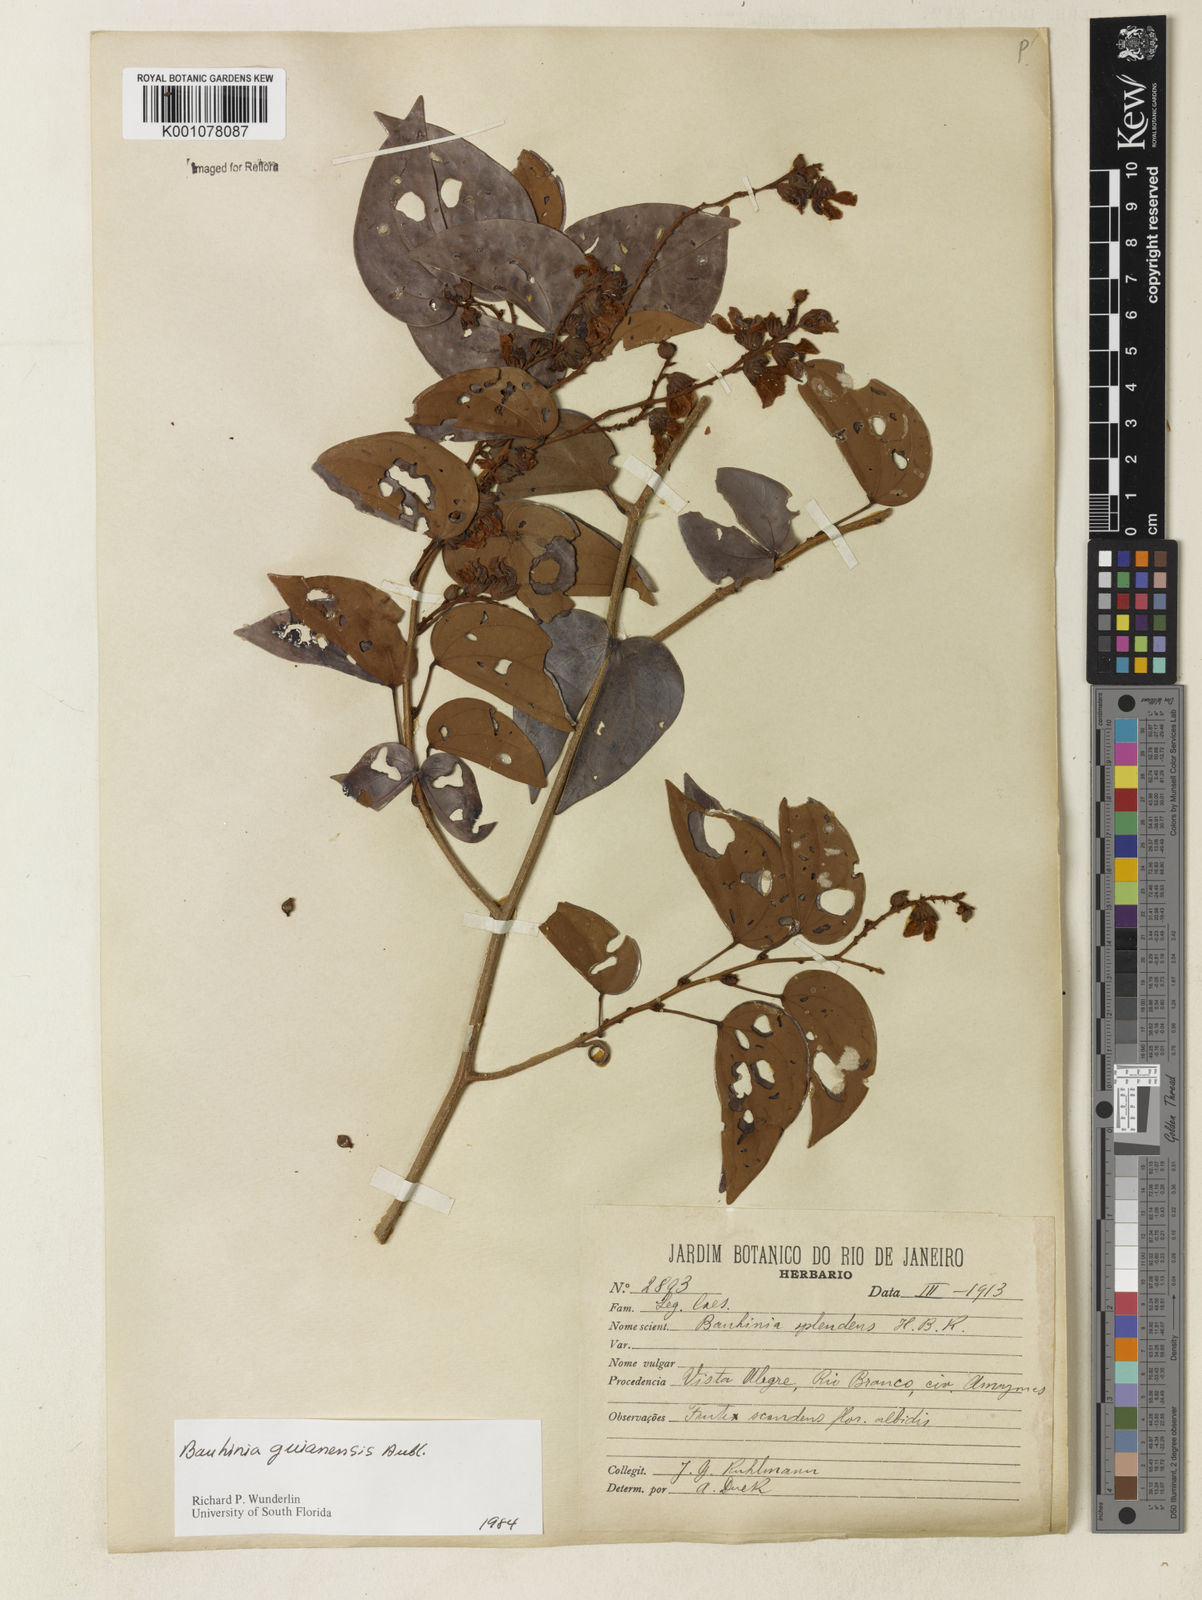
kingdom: Plantae
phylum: Tracheophyta
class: Magnoliopsida
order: Fabales
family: Fabaceae
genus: Schnella
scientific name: Schnella guianensis
